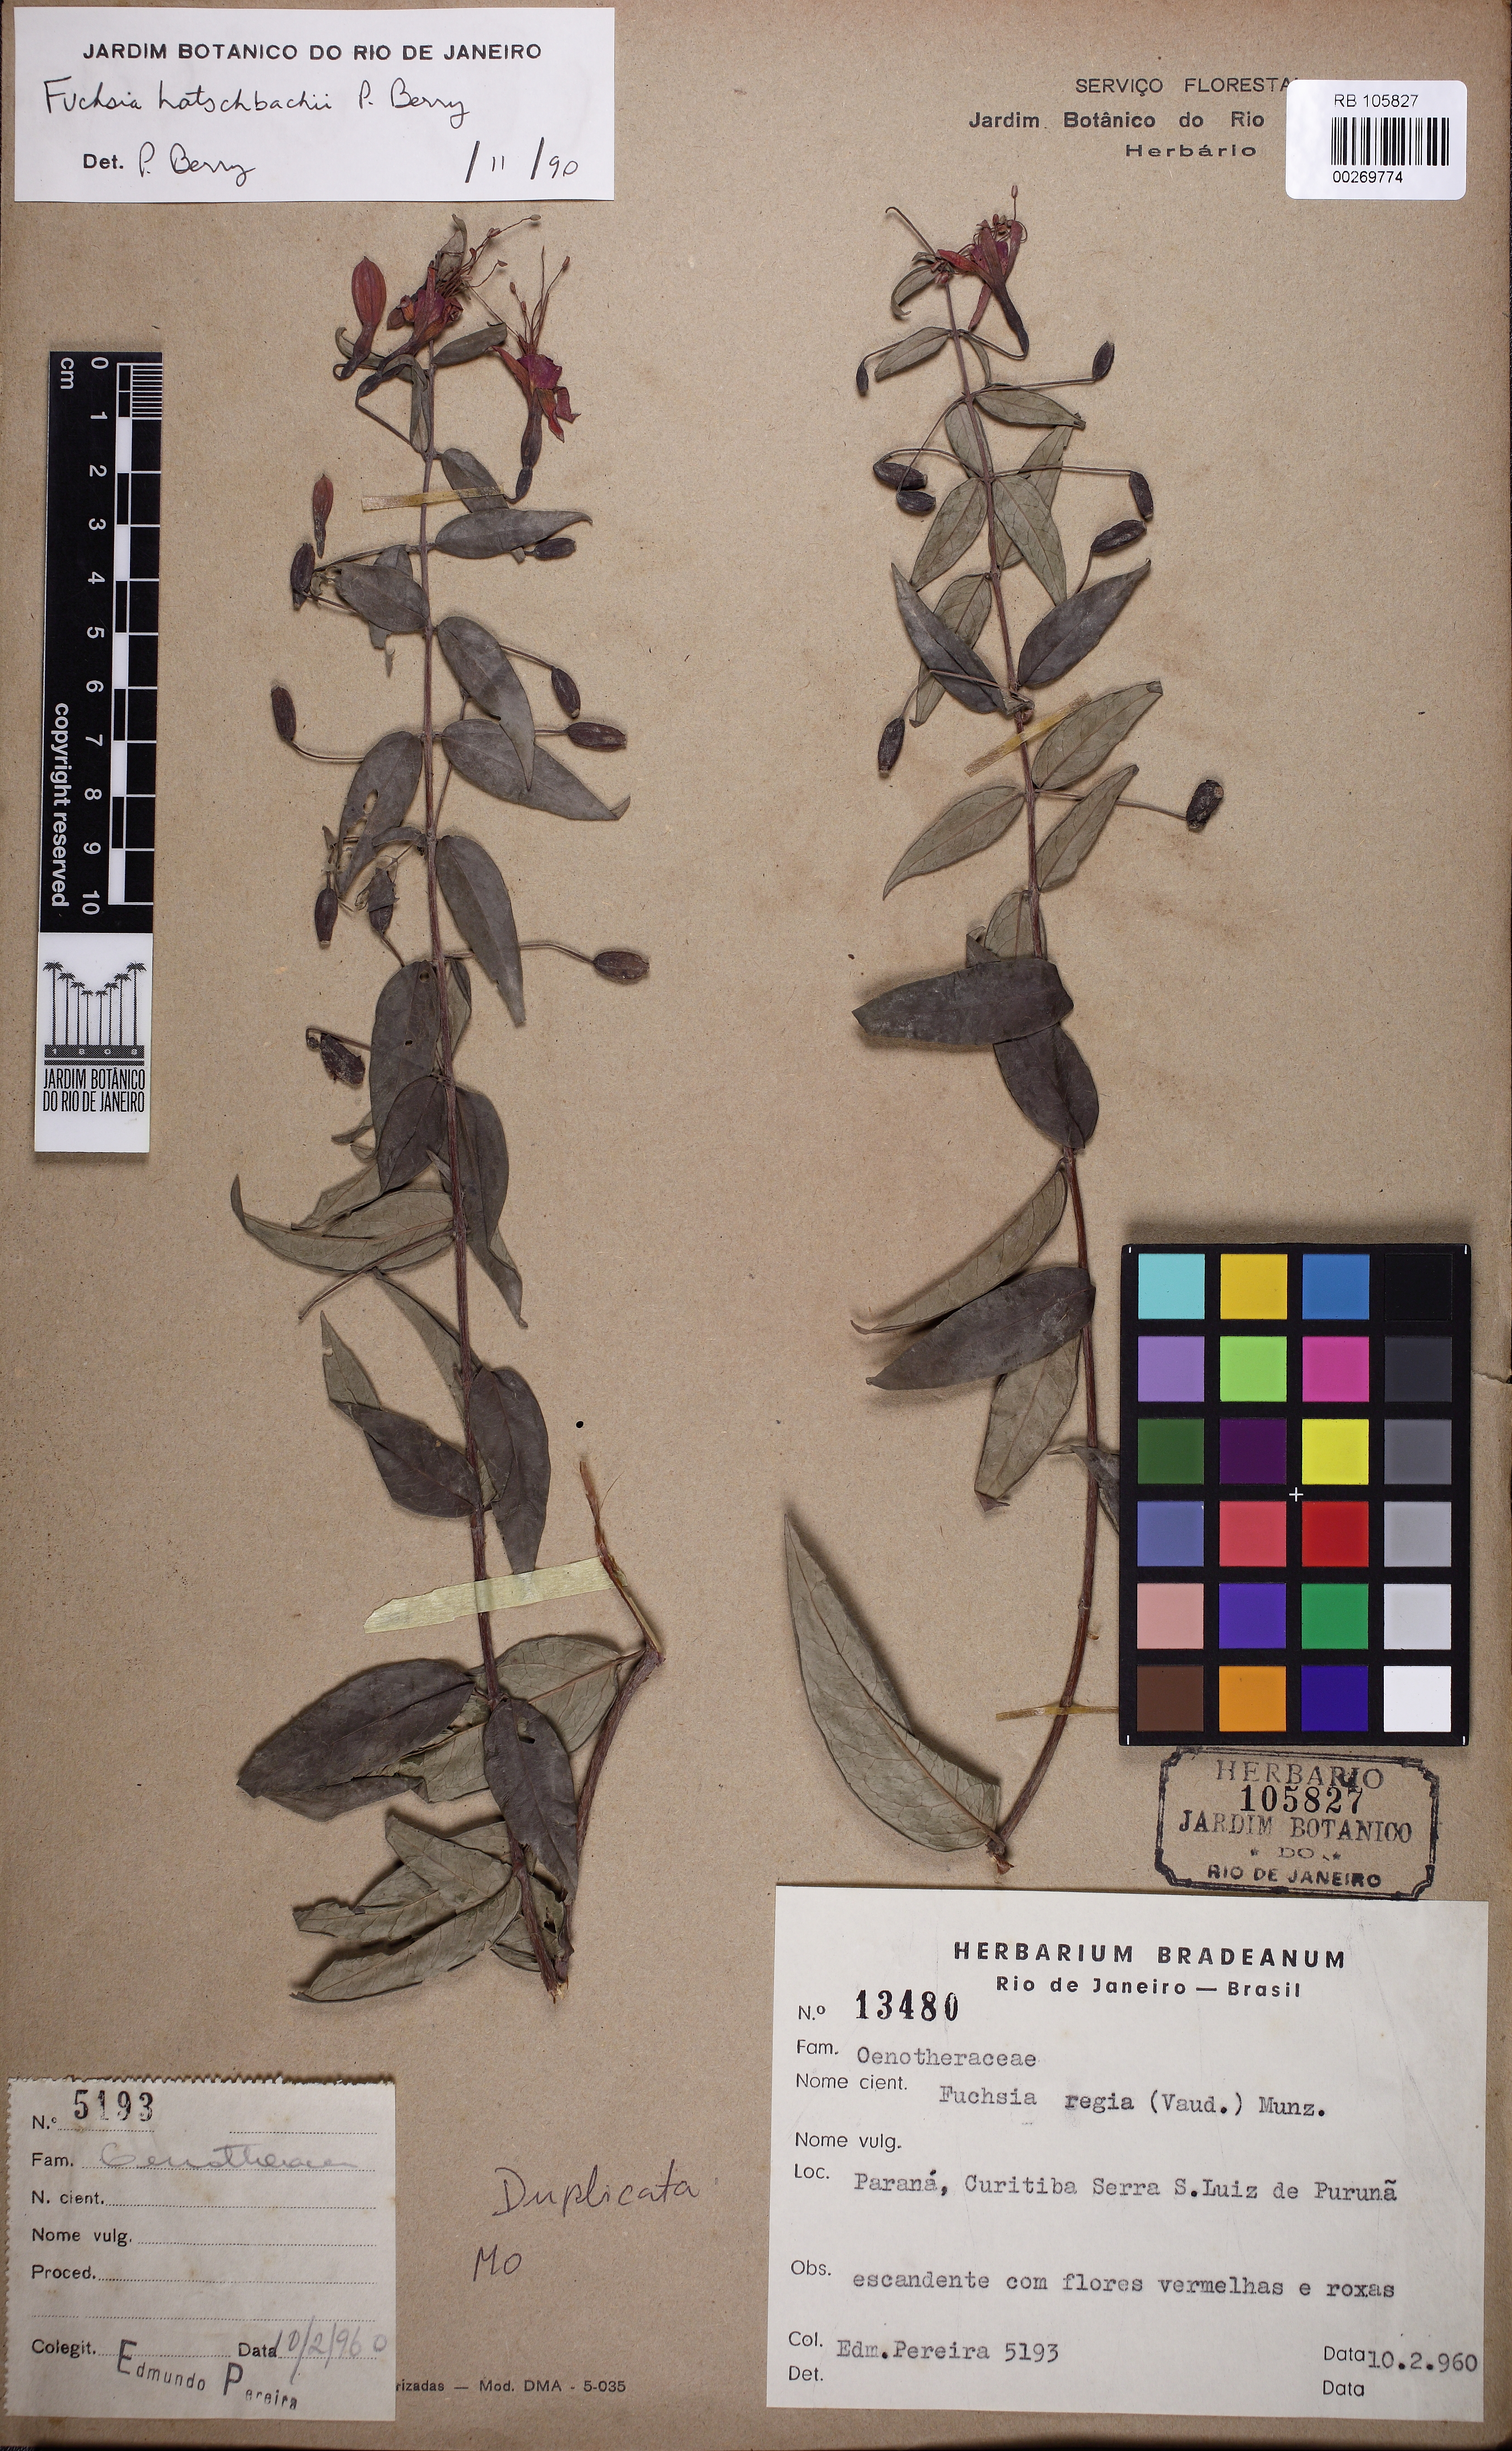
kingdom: Plantae
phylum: Tracheophyta
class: Magnoliopsida
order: Myrtales
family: Onagraceae
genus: Fuchsia
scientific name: Fuchsia hatschbachii
